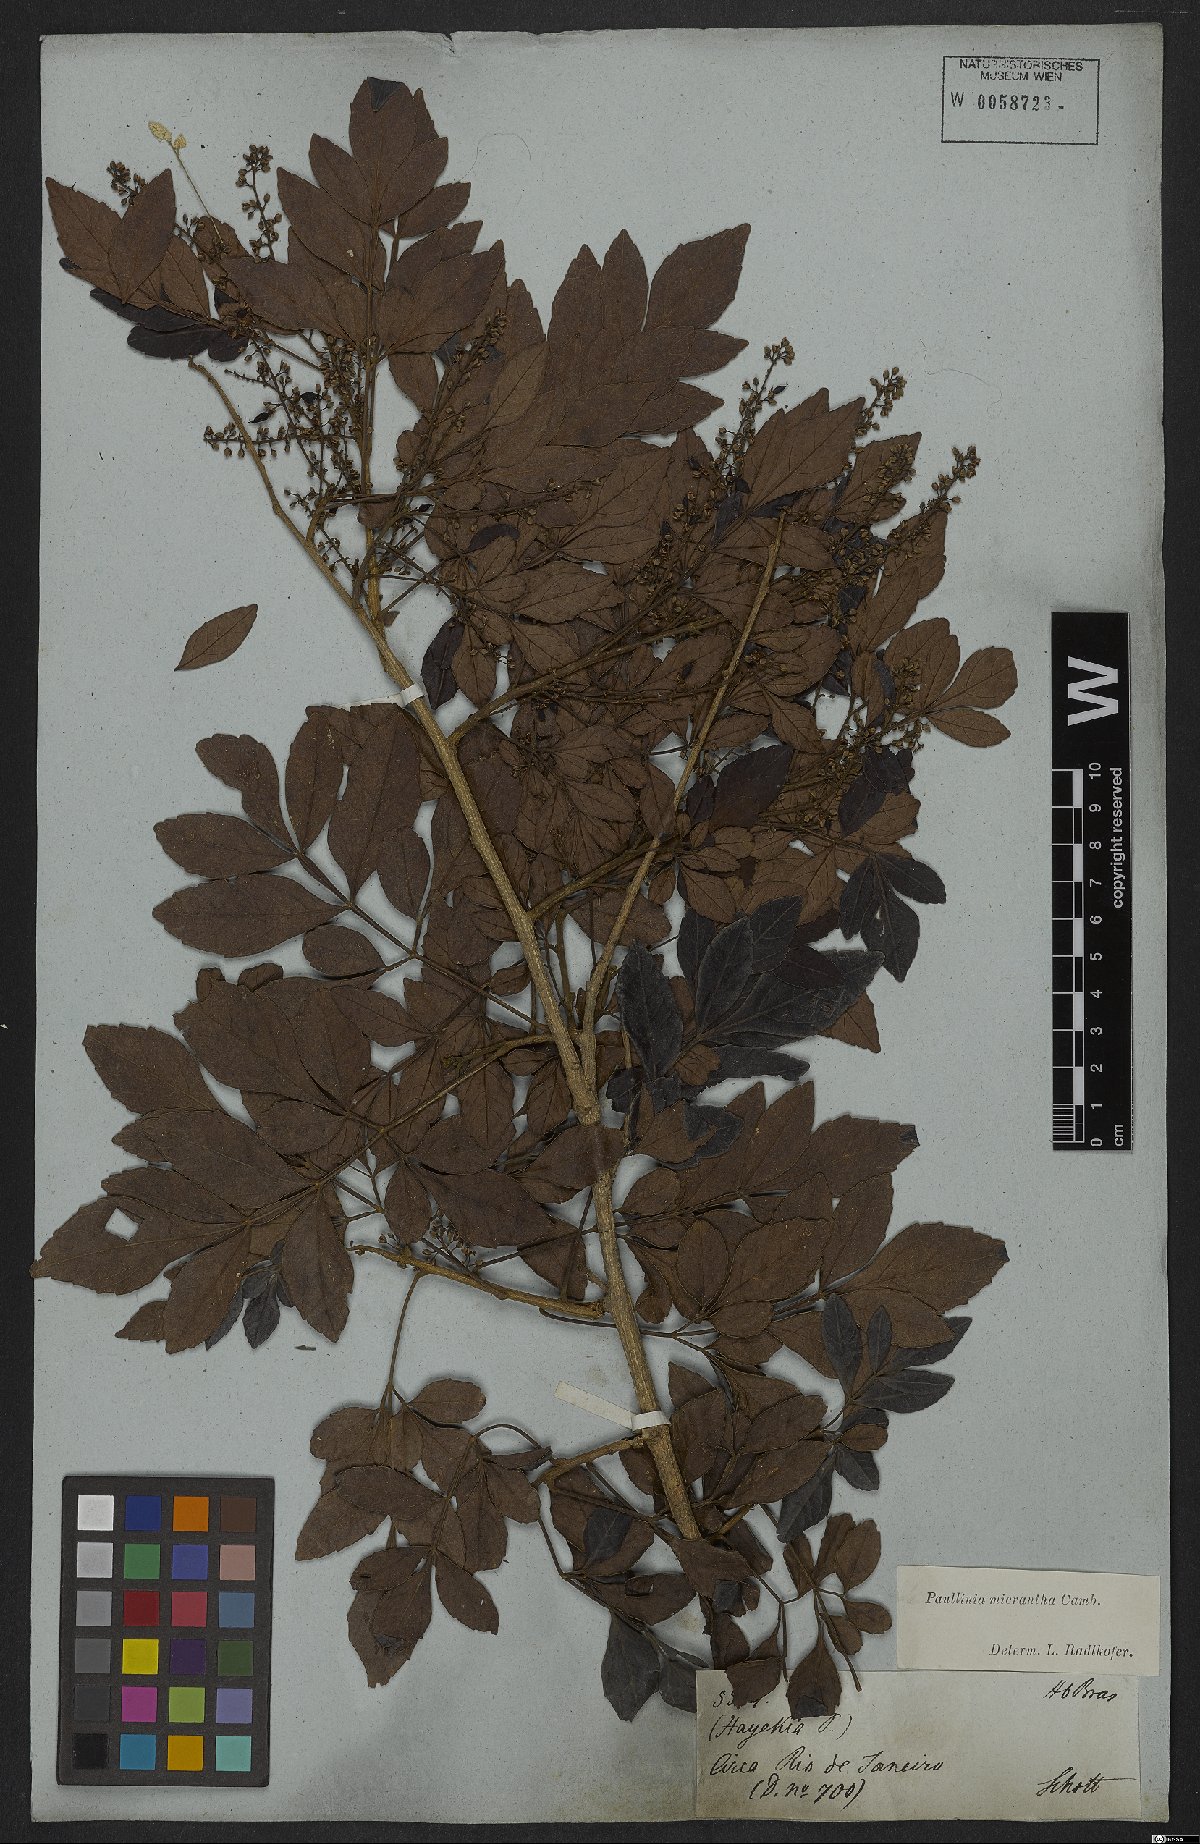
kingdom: Plantae
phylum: Tracheophyta
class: Magnoliopsida
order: Sapindales
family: Sapindaceae
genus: Paullinia
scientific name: Paullinia micrantha
